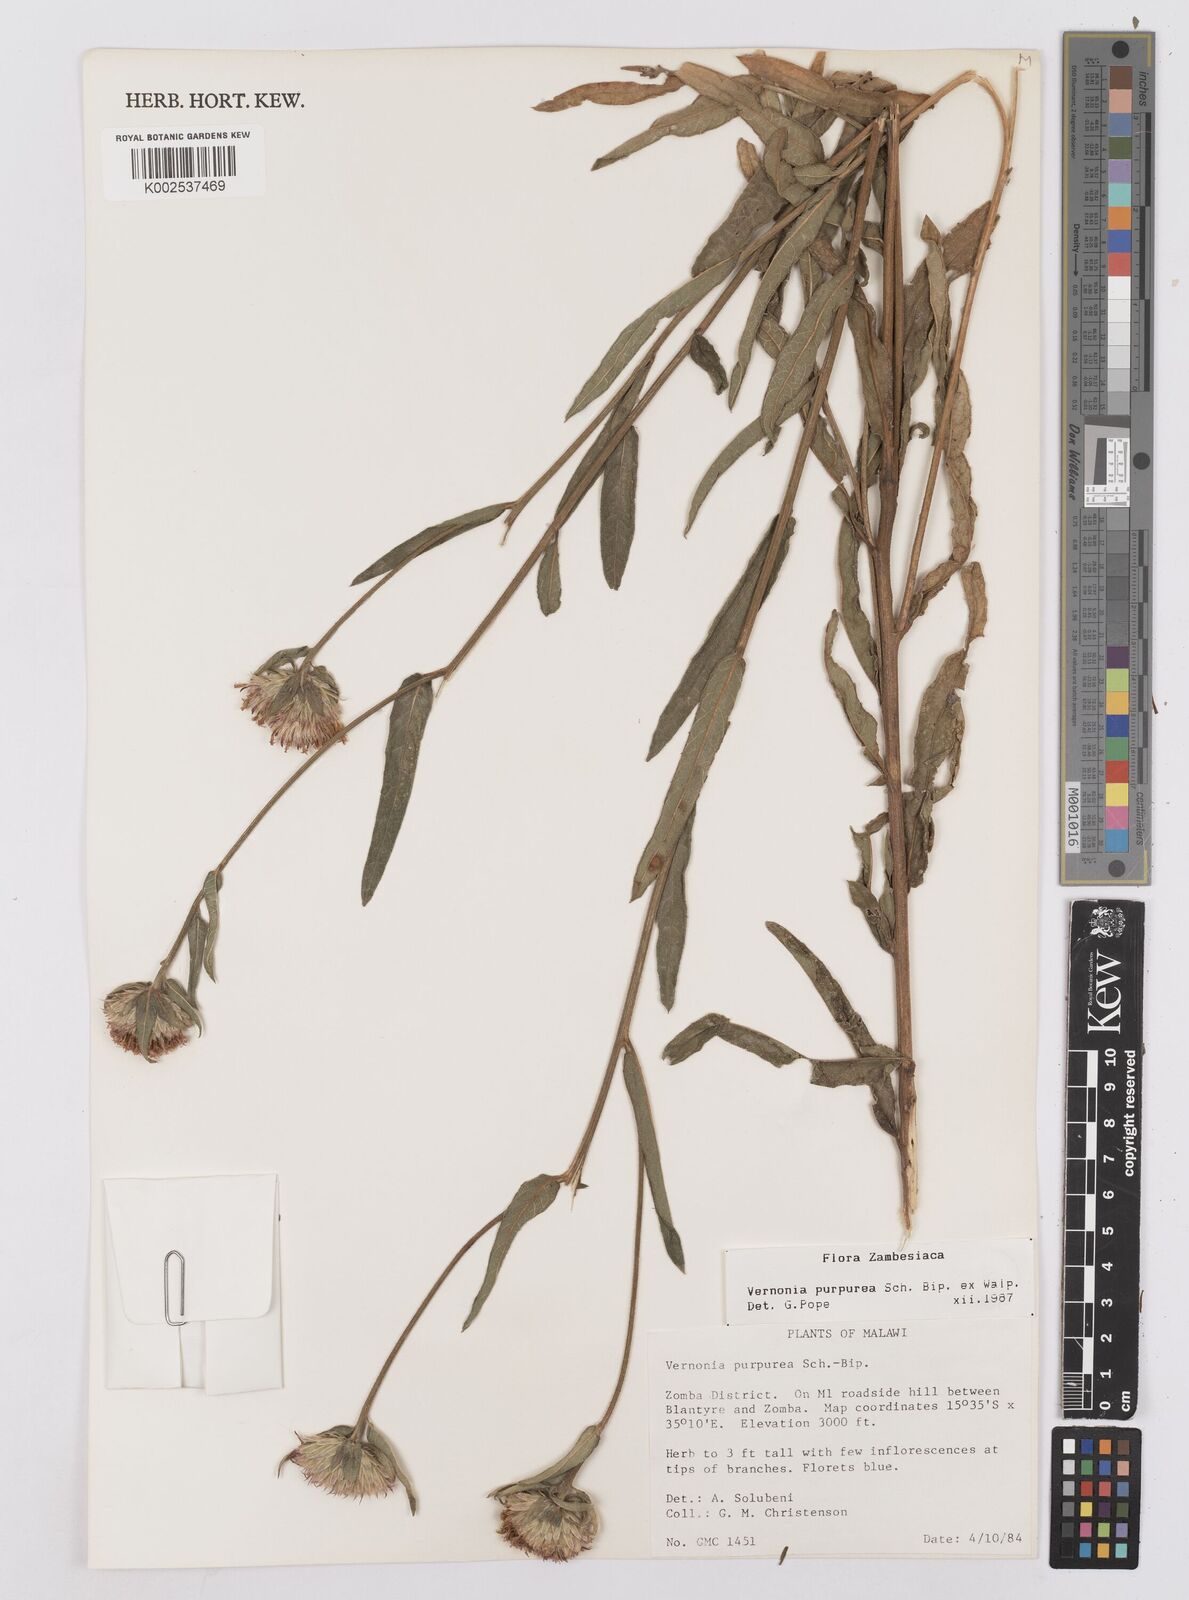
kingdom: Plantae
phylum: Tracheophyta
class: Magnoliopsida
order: Asterales
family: Asteraceae
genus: Nothovernonia
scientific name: Nothovernonia purpurea
